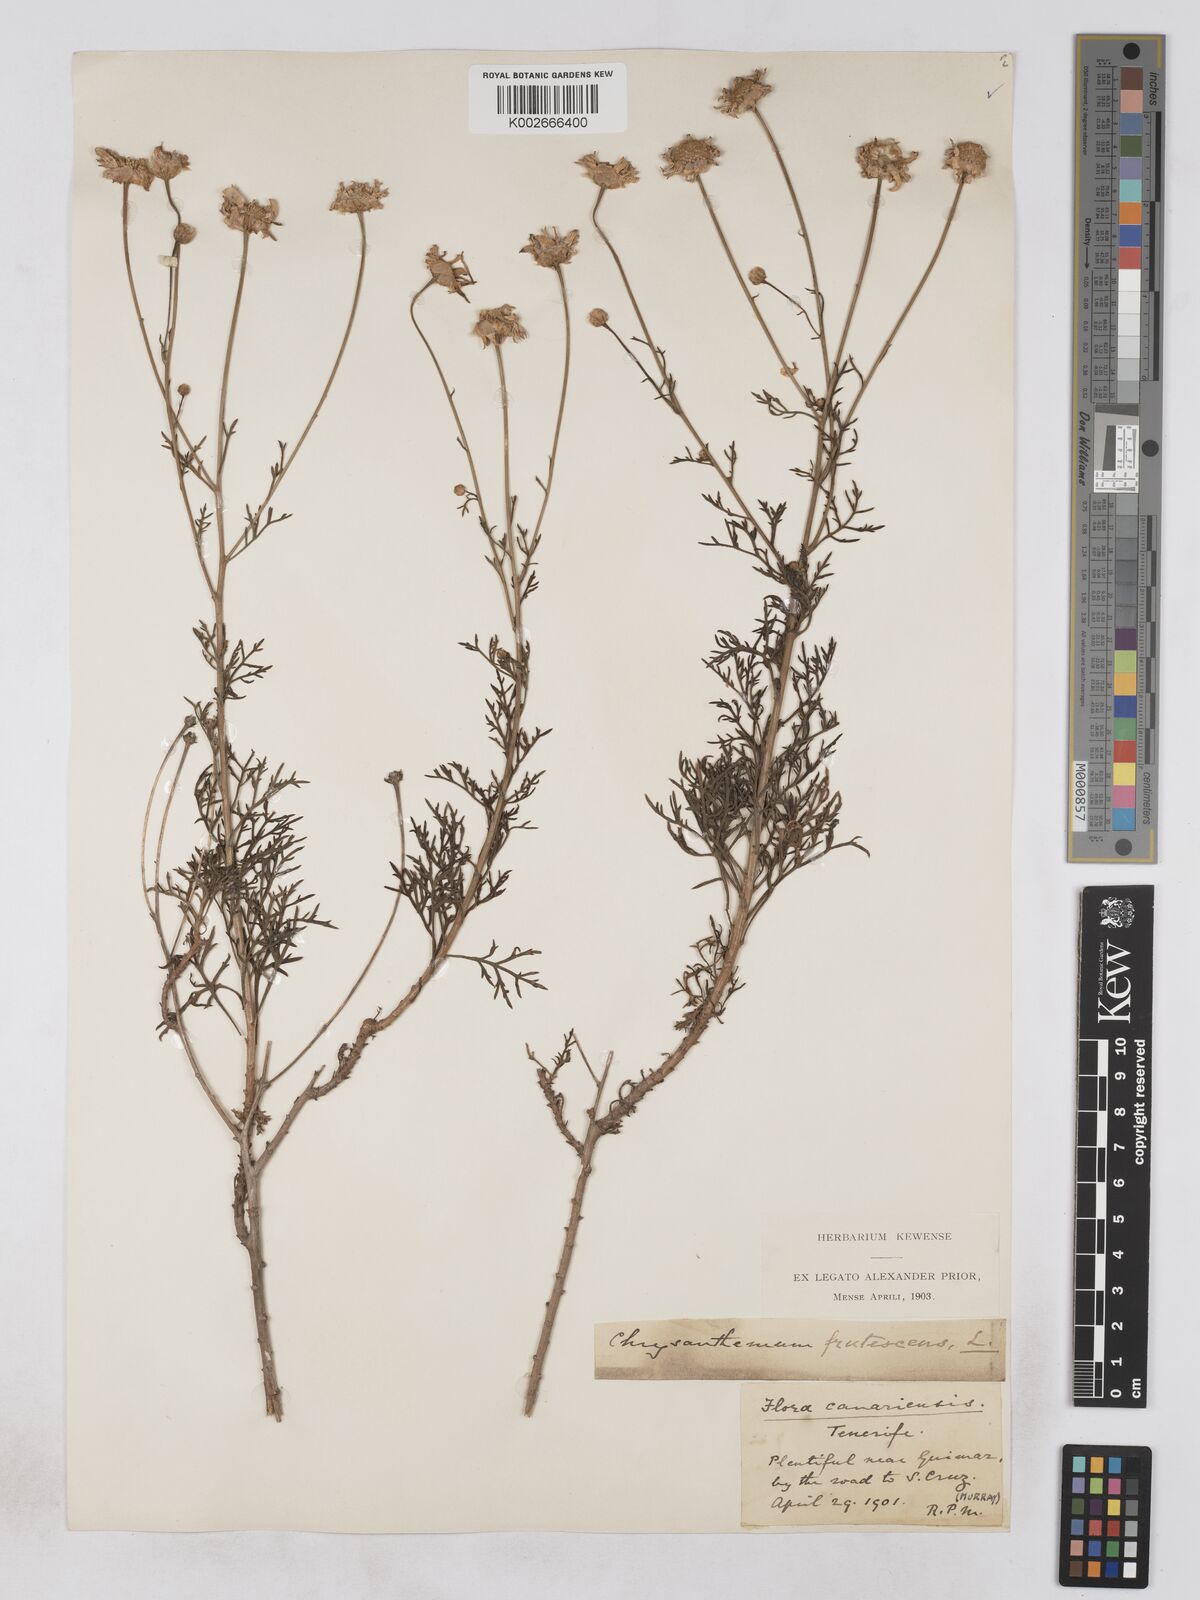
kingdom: Plantae
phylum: Tracheophyta
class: Magnoliopsida
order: Asterales
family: Asteraceae
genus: Argyranthemum
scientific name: Argyranthemum frutescens
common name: Paris daisy
